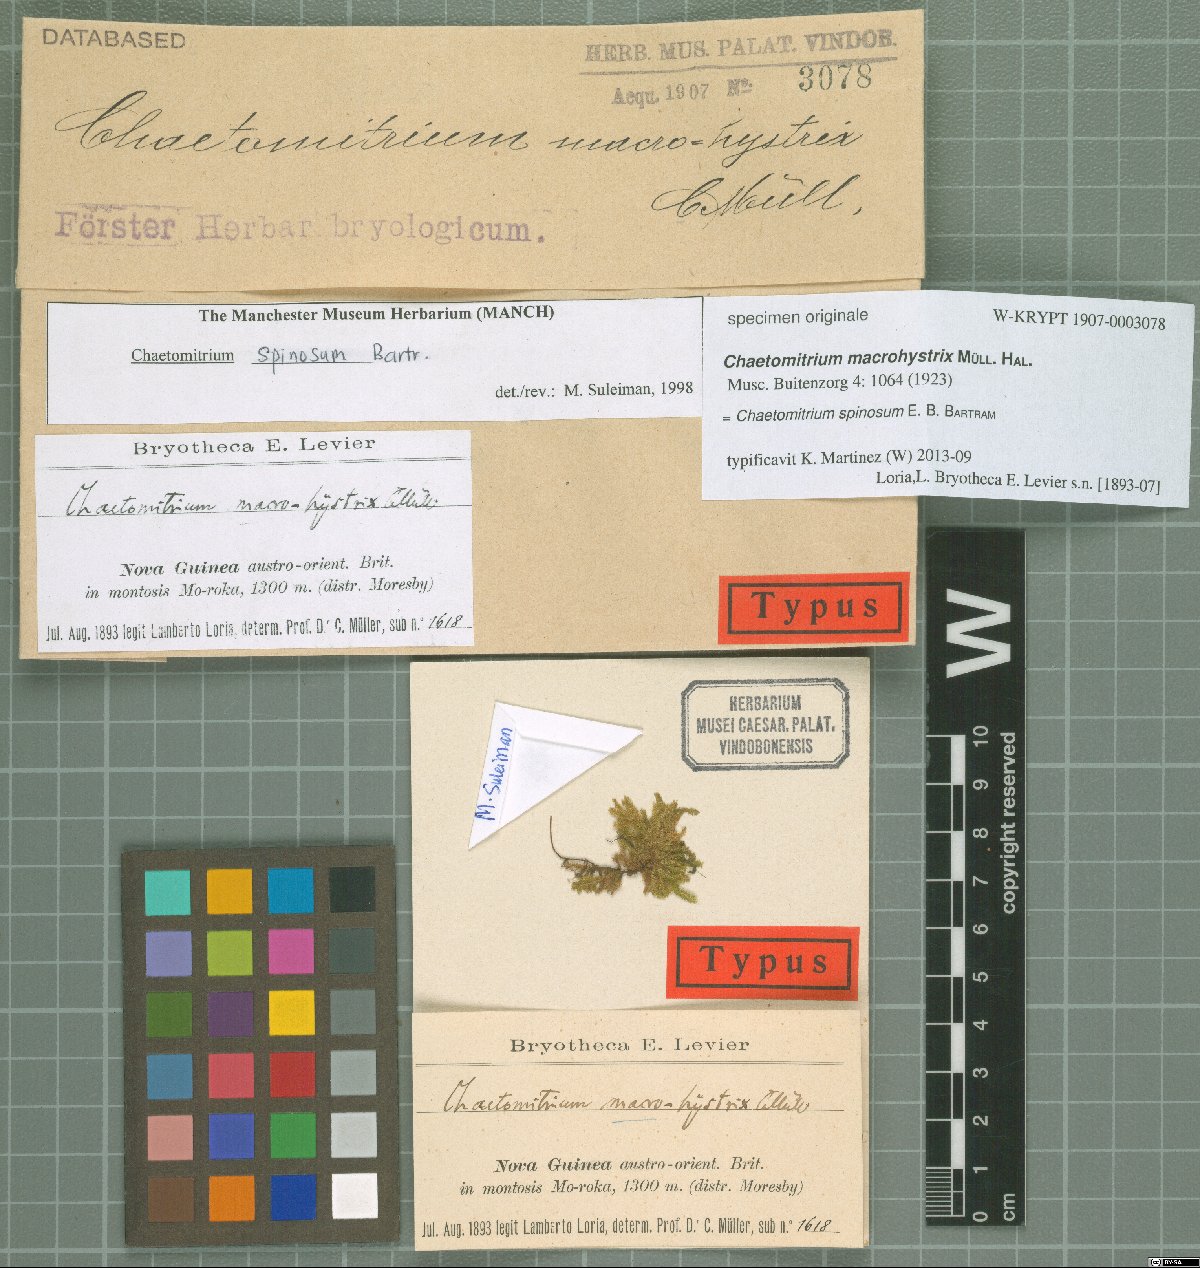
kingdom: Plantae
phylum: Bryophyta
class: Bryopsida
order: Hookeriales
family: Hookeriaceae
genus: Chaetomitrium
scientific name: Chaetomitrium macrohystrix
